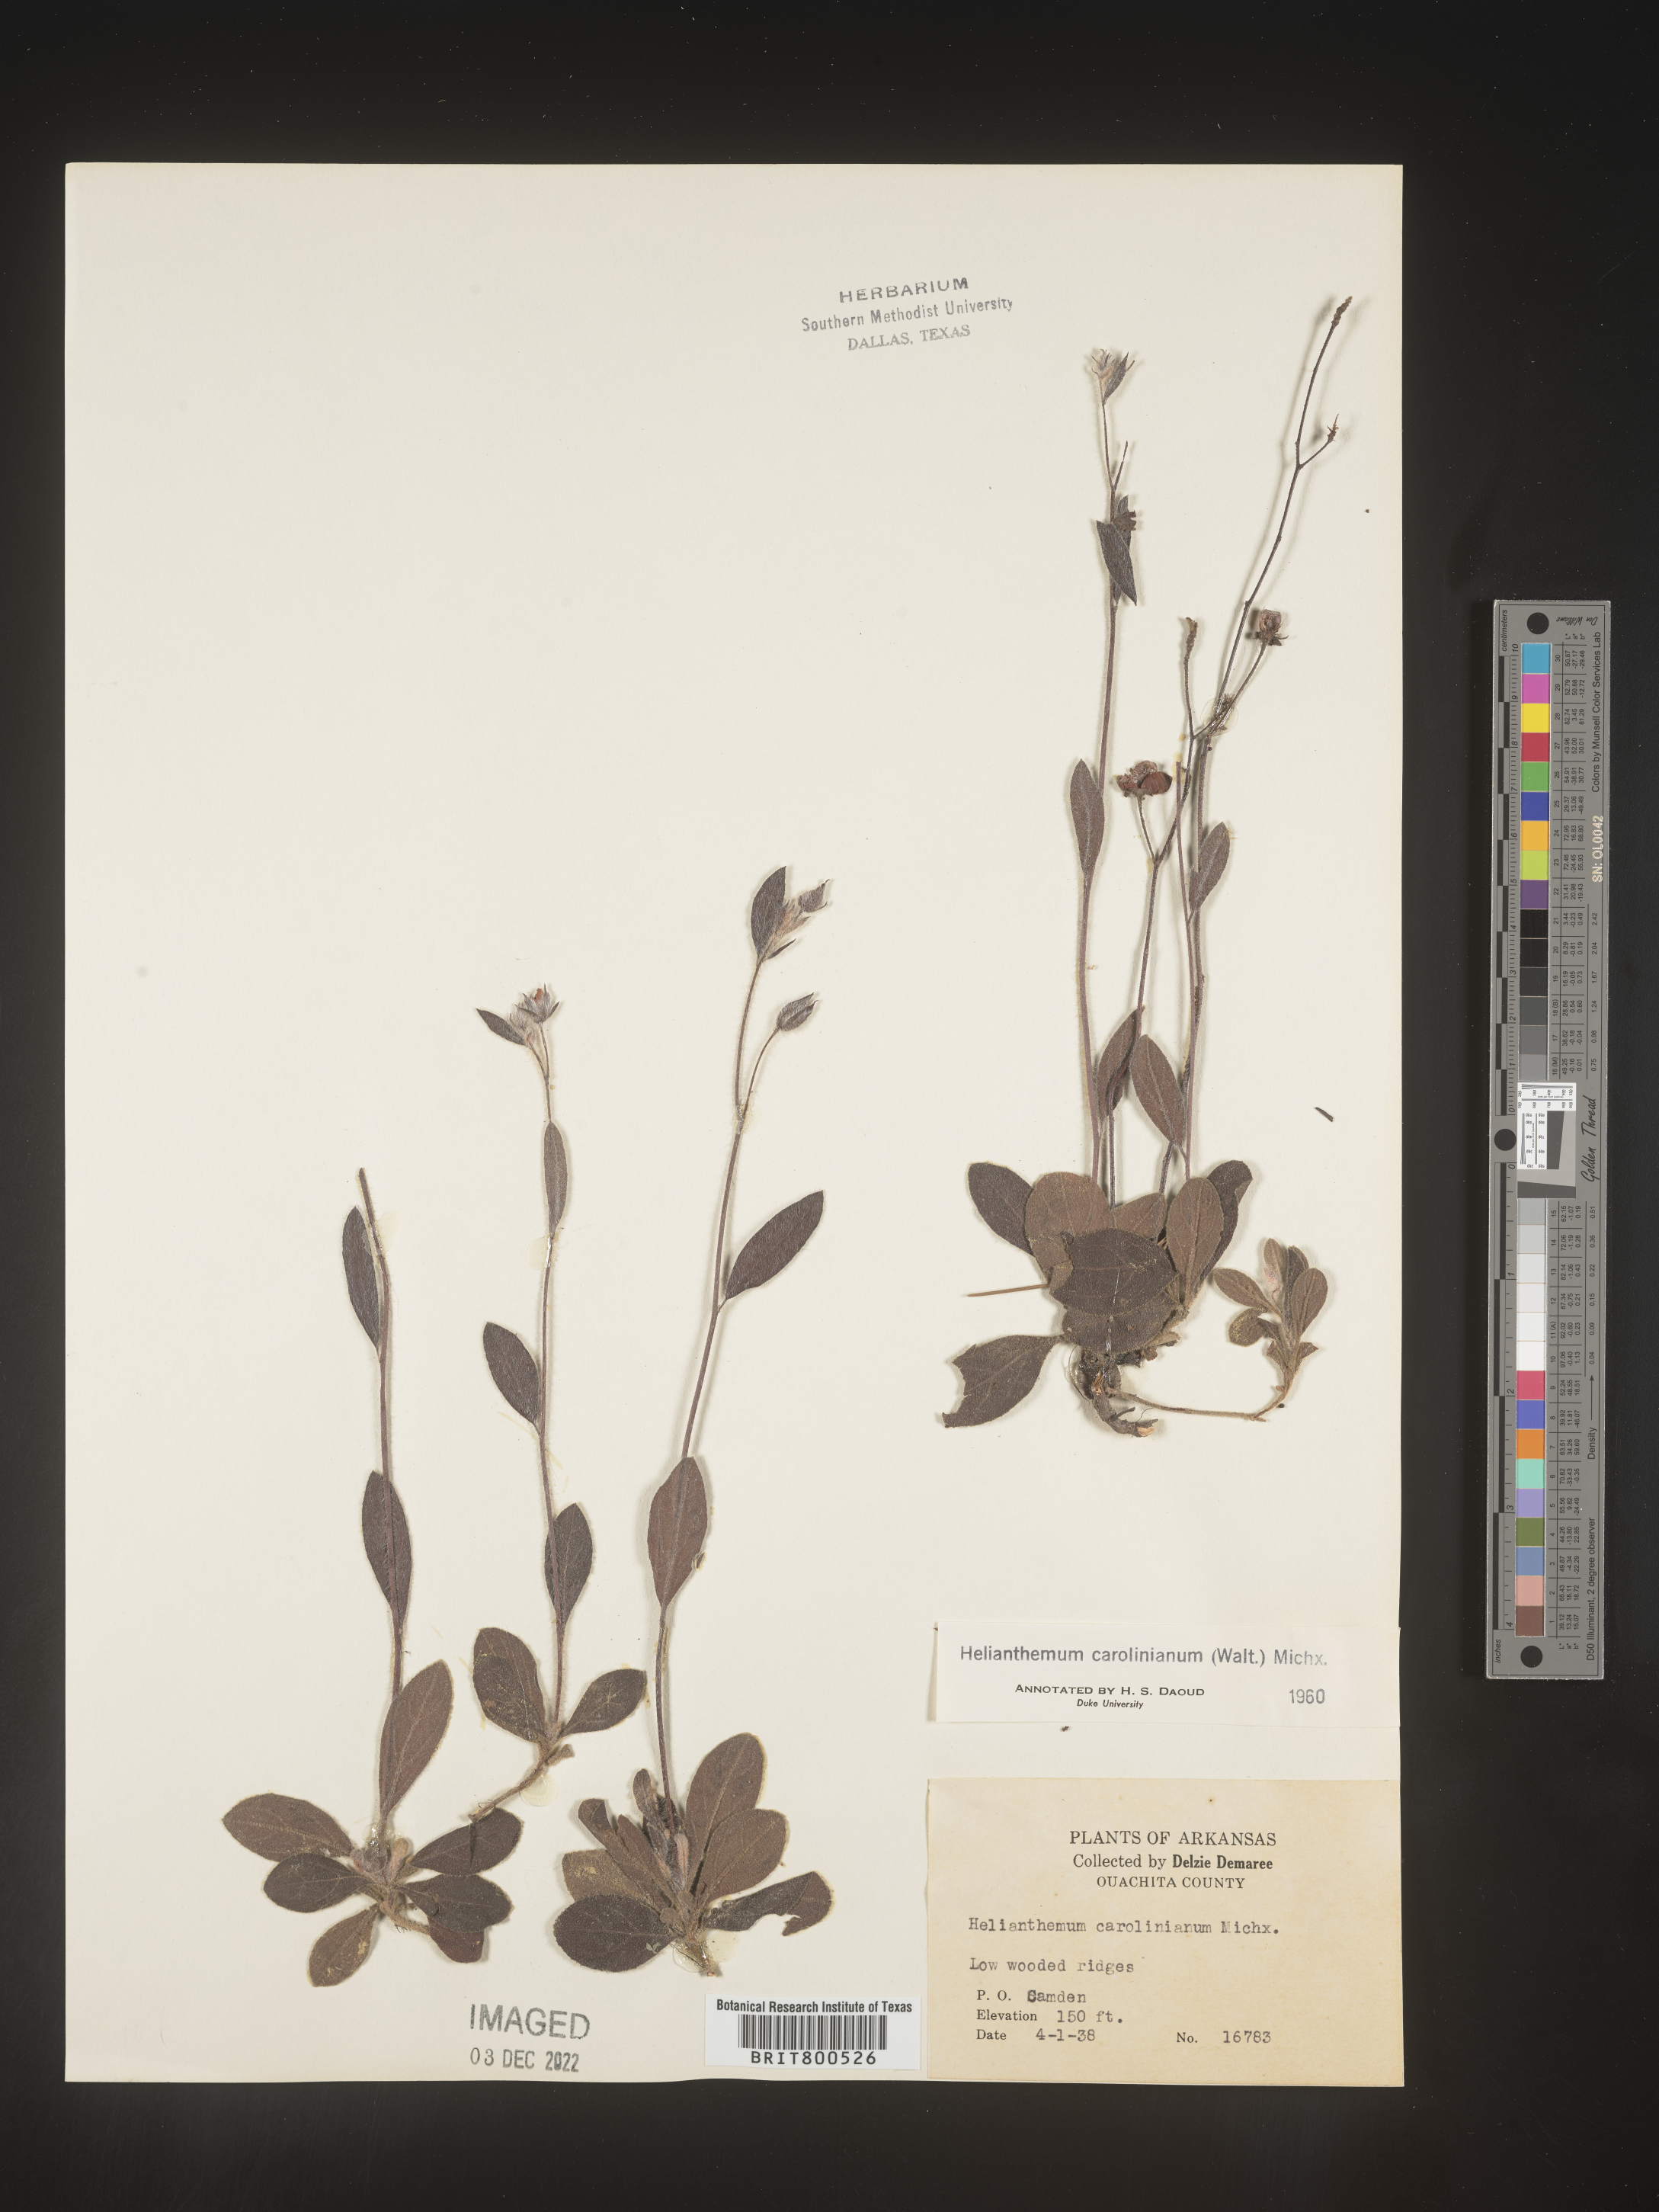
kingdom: Plantae
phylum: Tracheophyta
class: Magnoliopsida
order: Malvales
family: Cistaceae
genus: Crocanthemum
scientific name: Crocanthemum carolinianum
